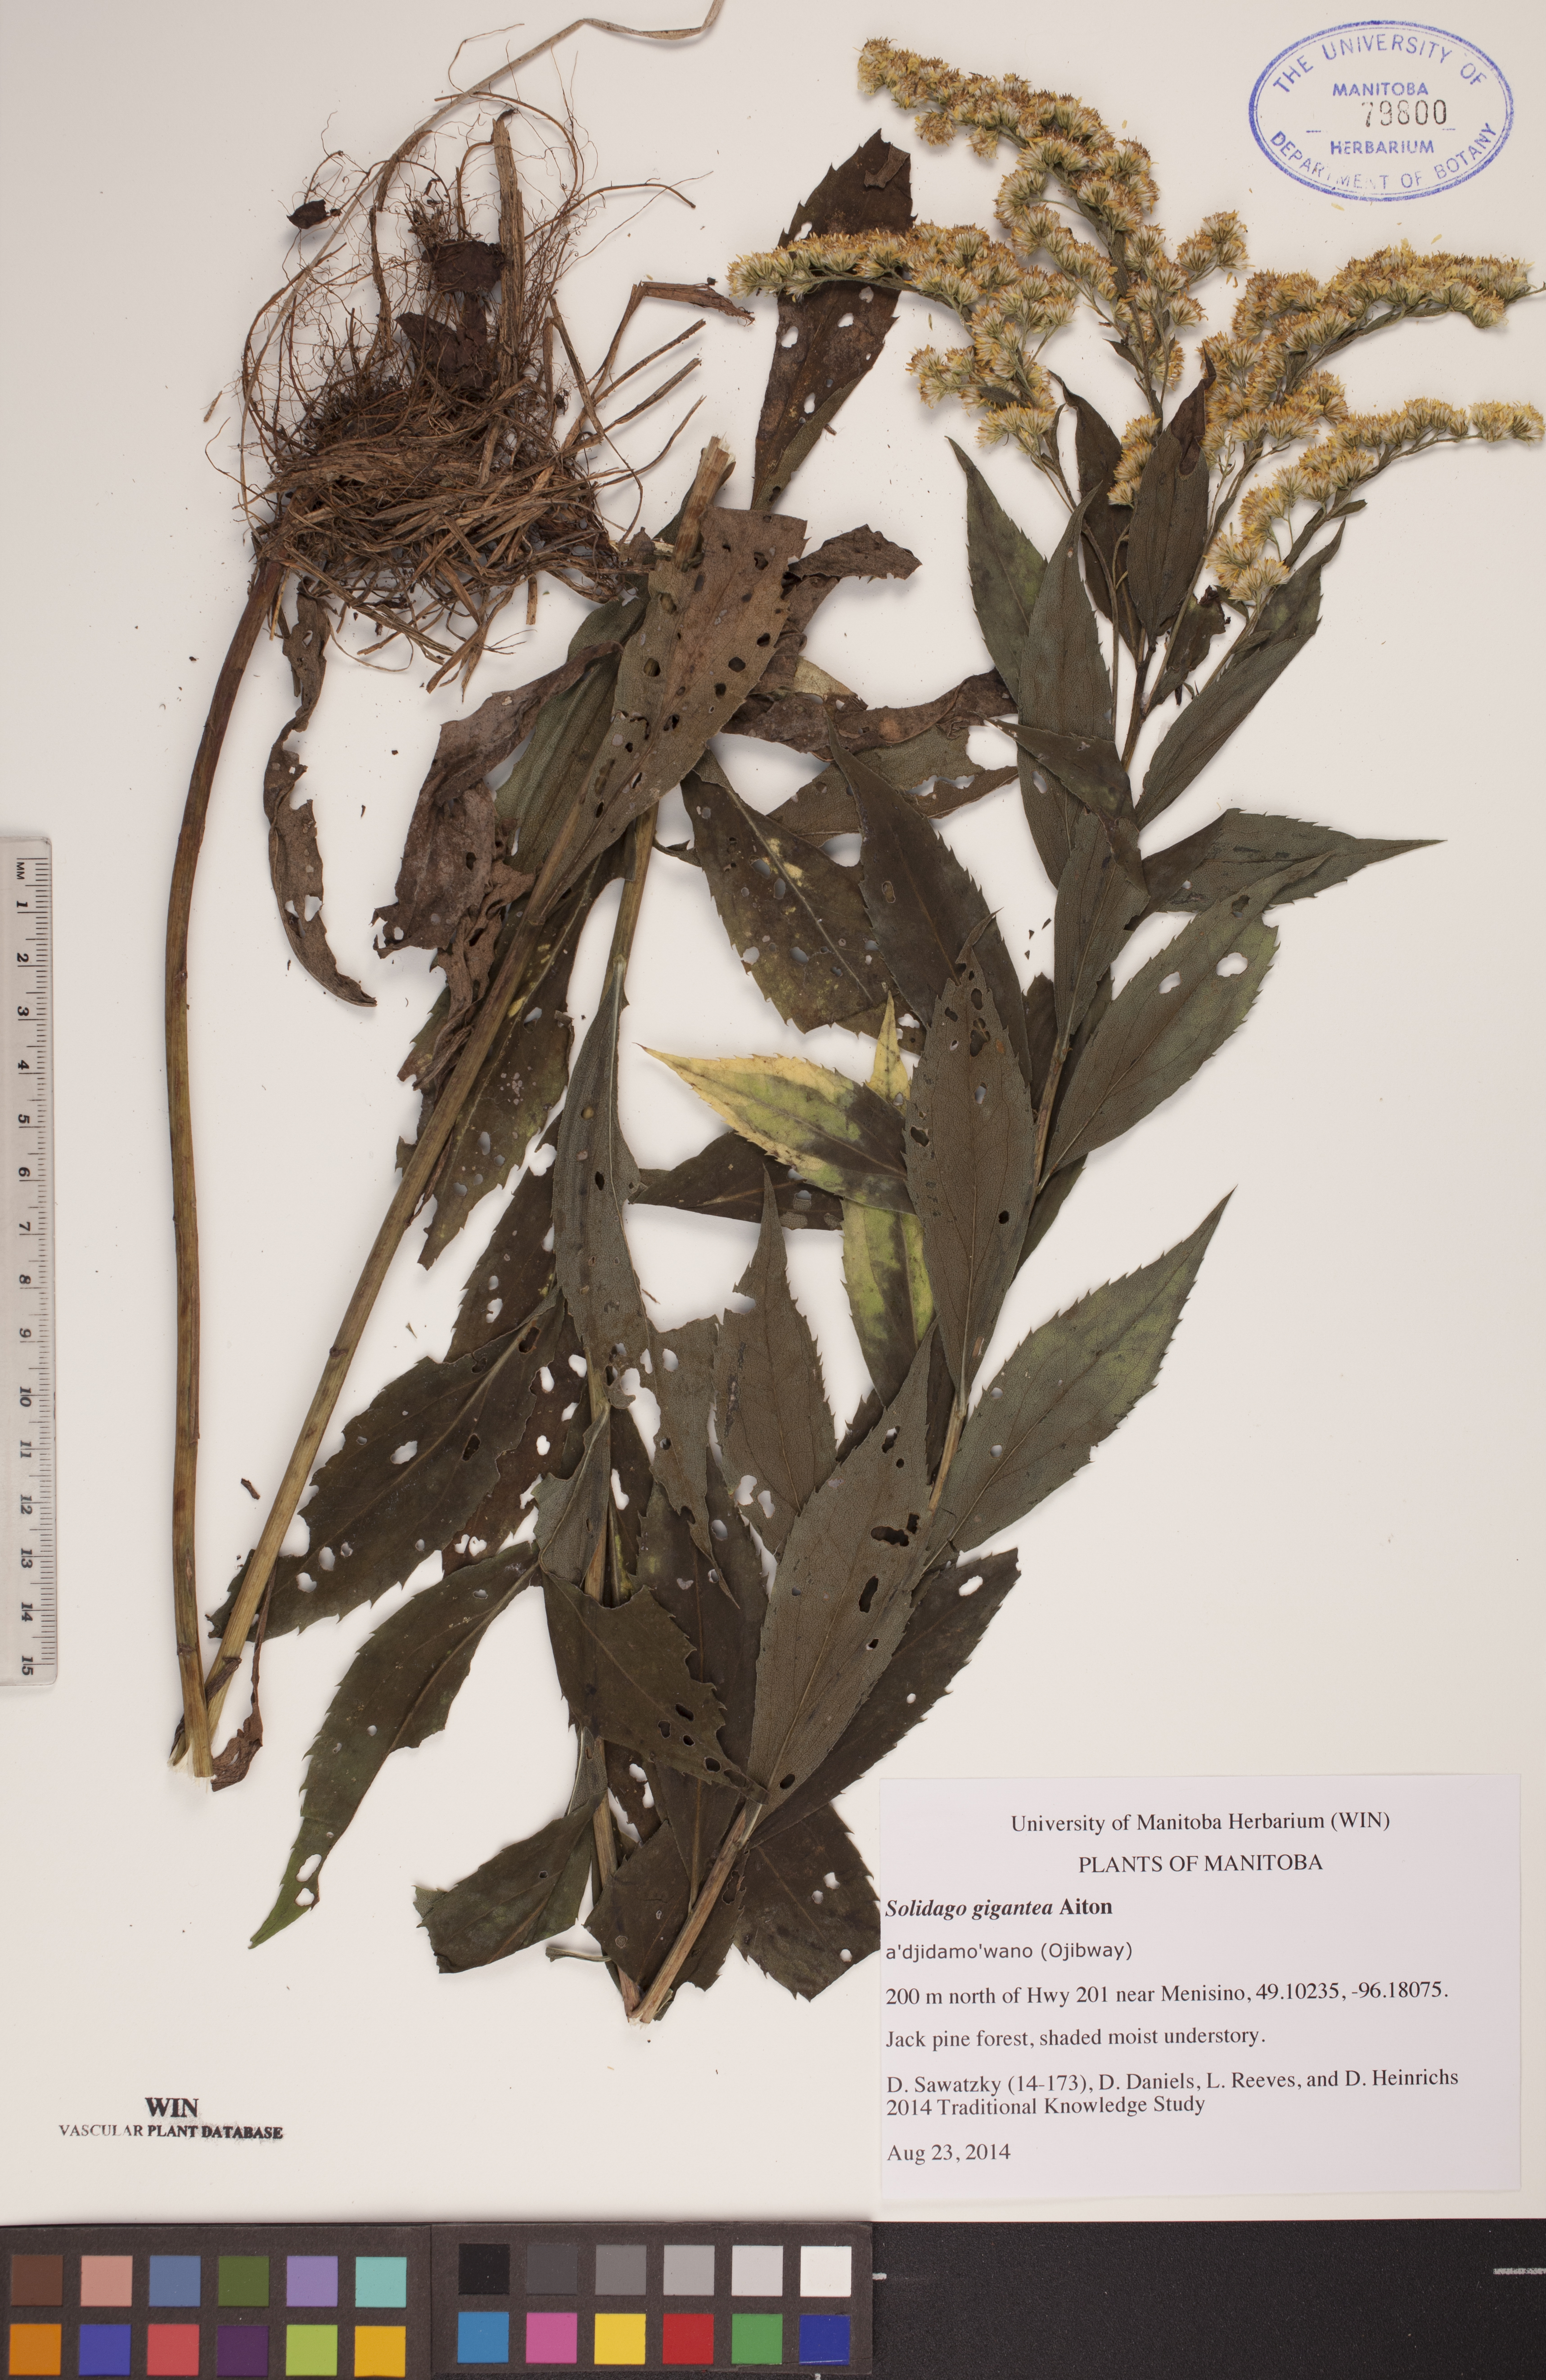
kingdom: Plantae
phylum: Tracheophyta
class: Magnoliopsida
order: Asterales
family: Asteraceae
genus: Solidago
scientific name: Solidago gigantea
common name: Giant goldenrod
